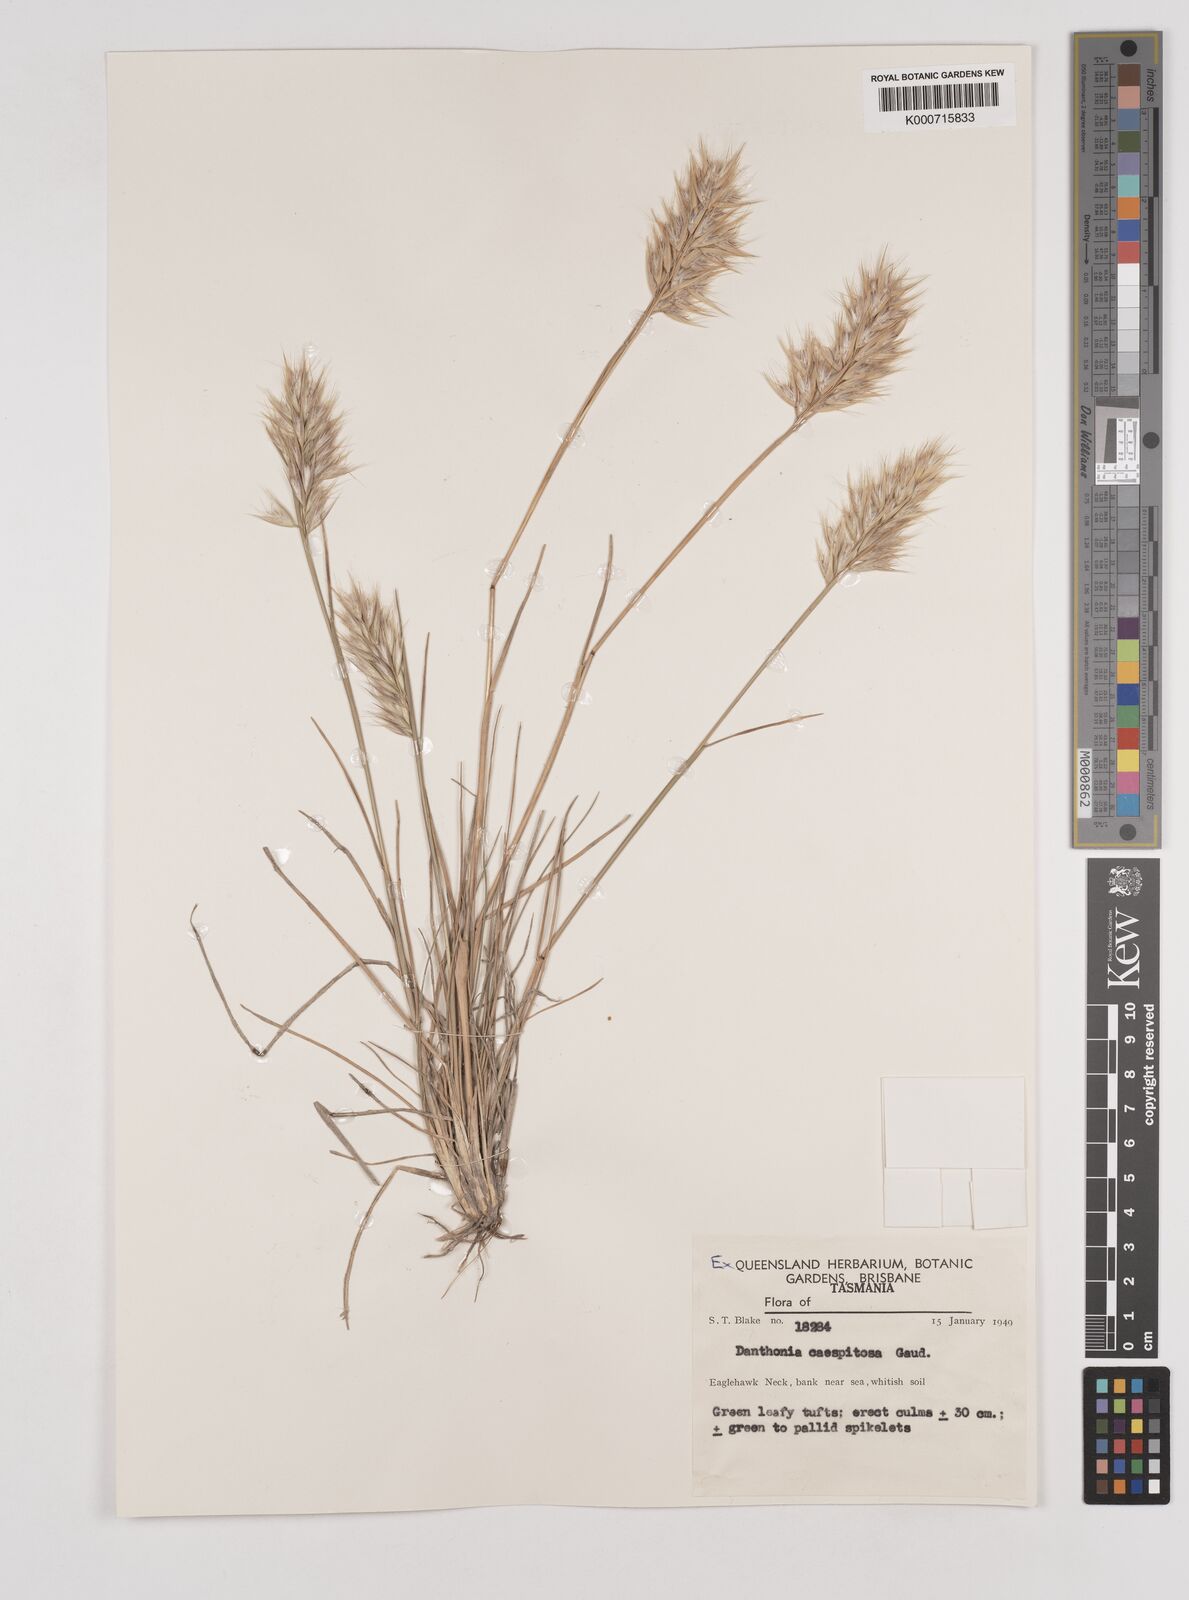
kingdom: Plantae
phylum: Tracheophyta
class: Liliopsida
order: Poales
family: Poaceae
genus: Rytidosperma
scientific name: Rytidosperma caespitosum
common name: Tufted wallaby grass
